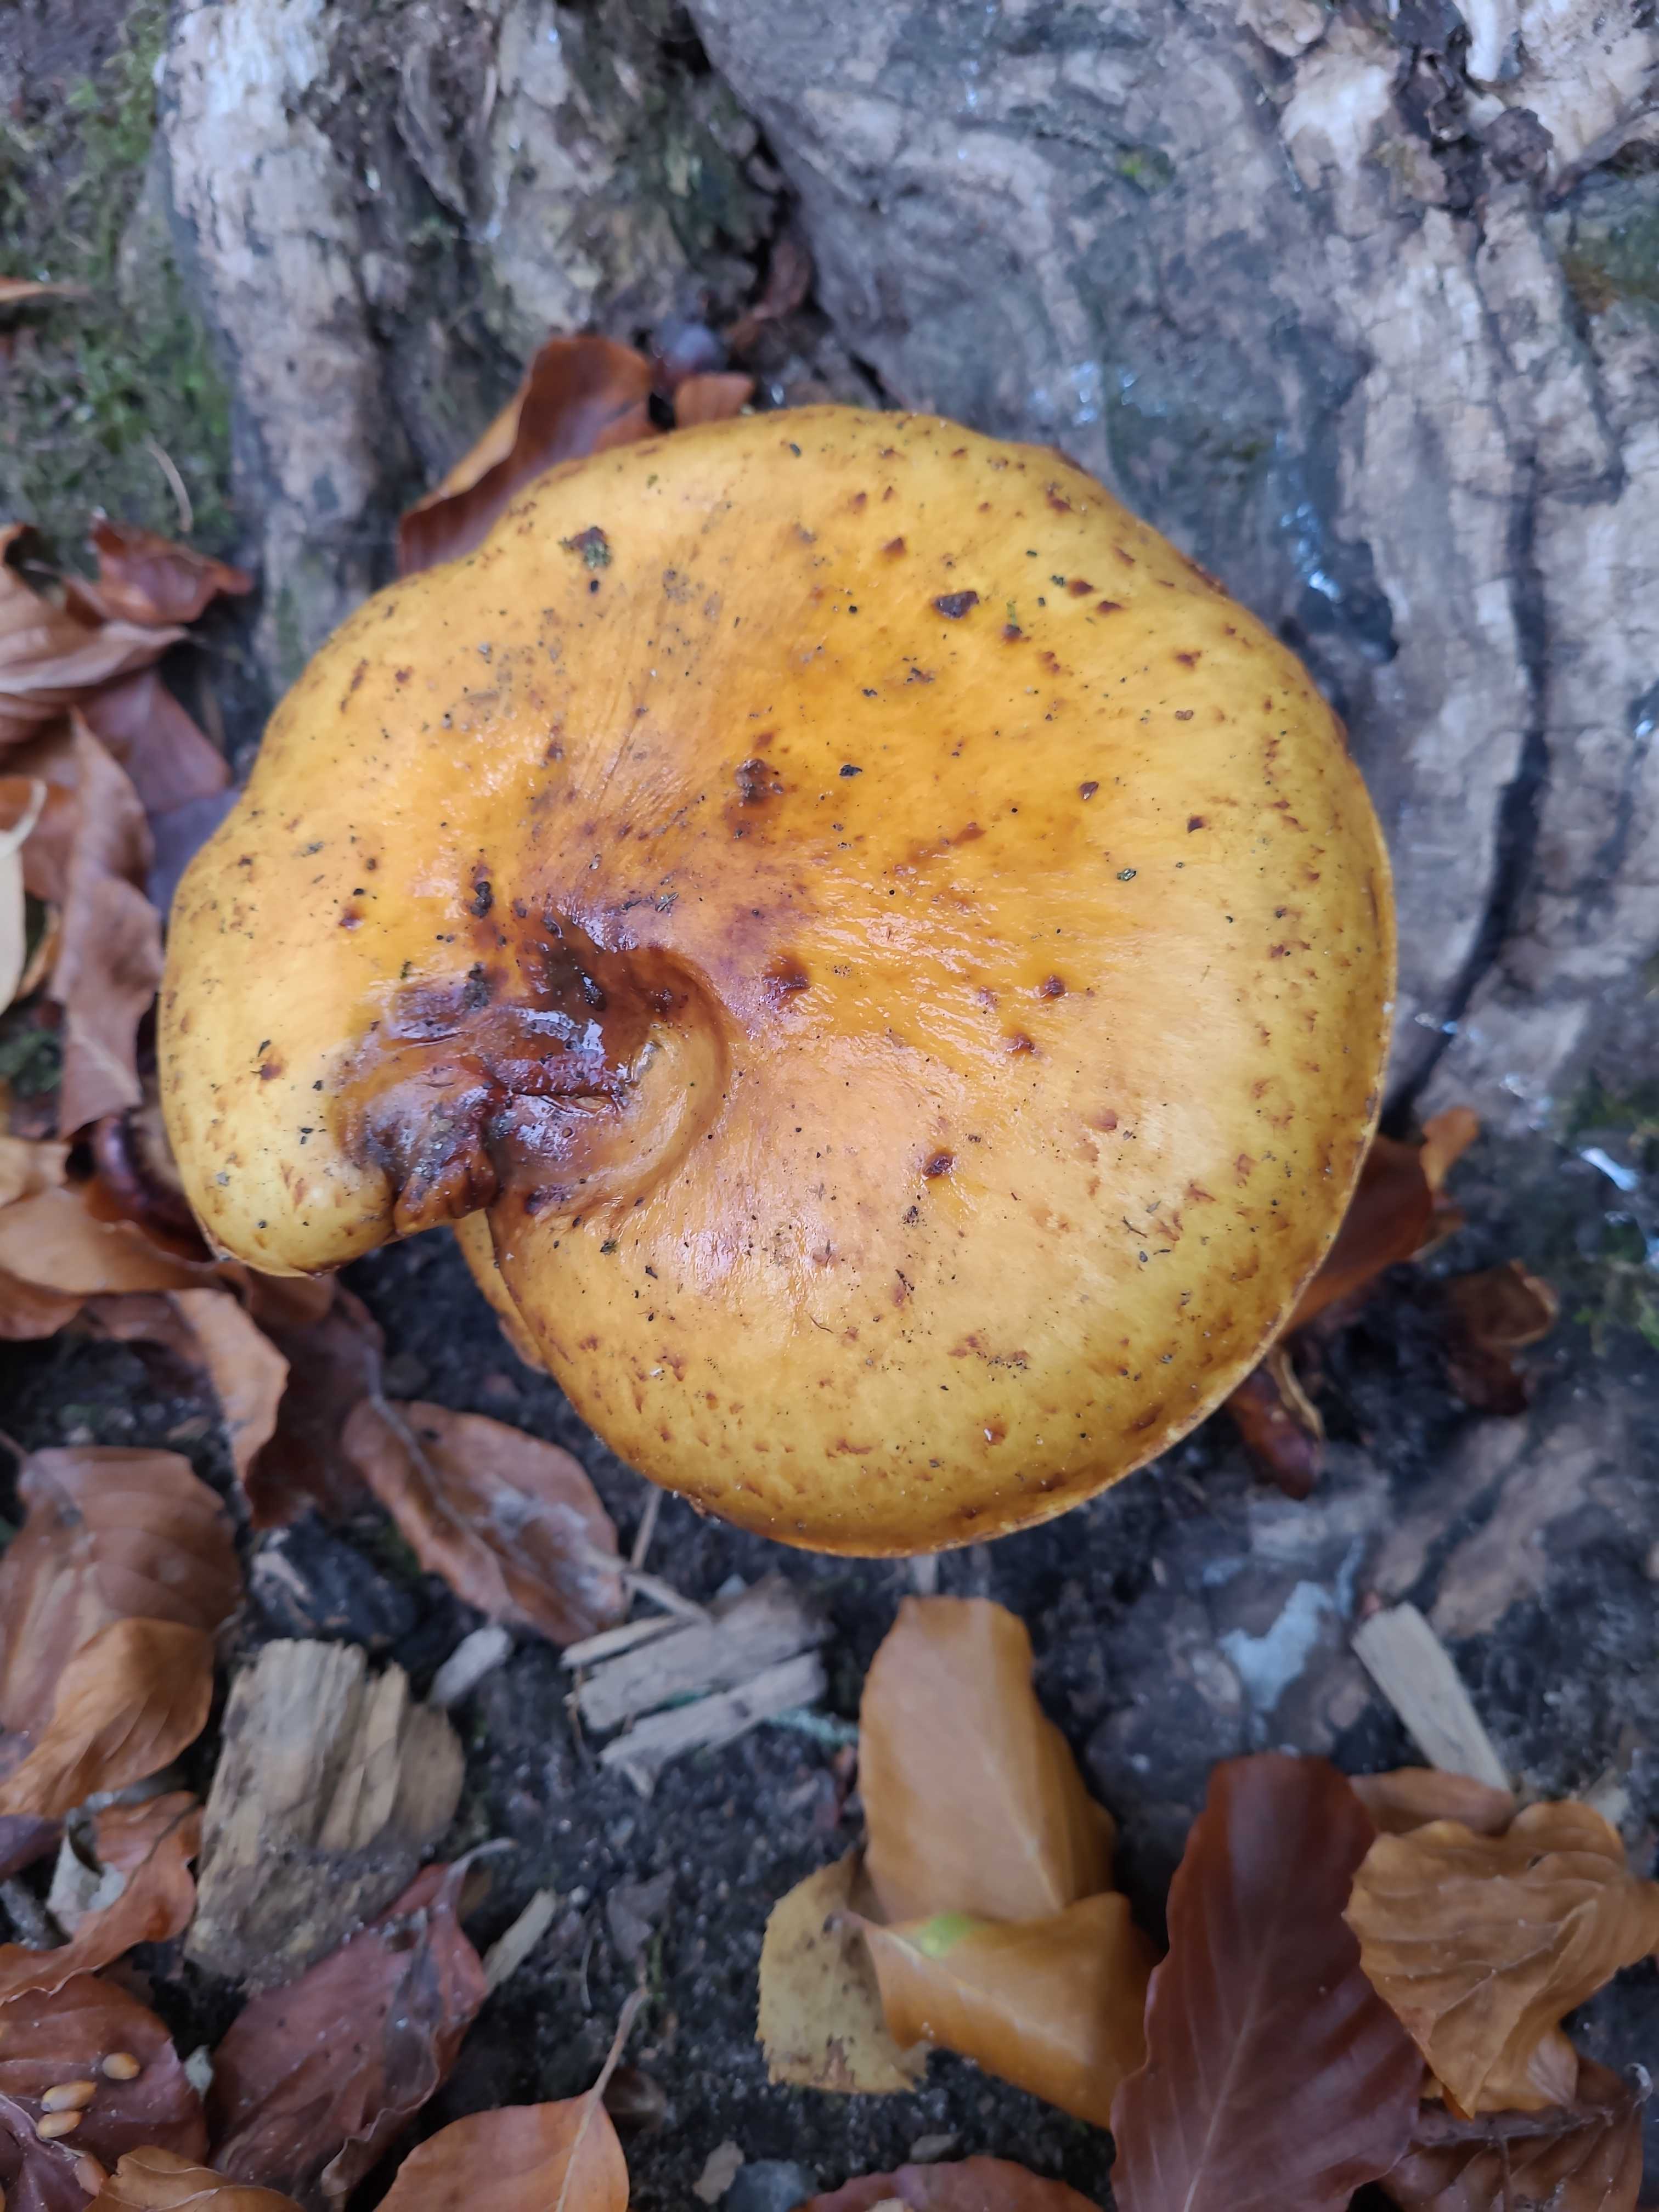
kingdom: Fungi
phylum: Basidiomycota
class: Agaricomycetes
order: Agaricales
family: Strophariaceae
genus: Pholiota
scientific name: Pholiota
